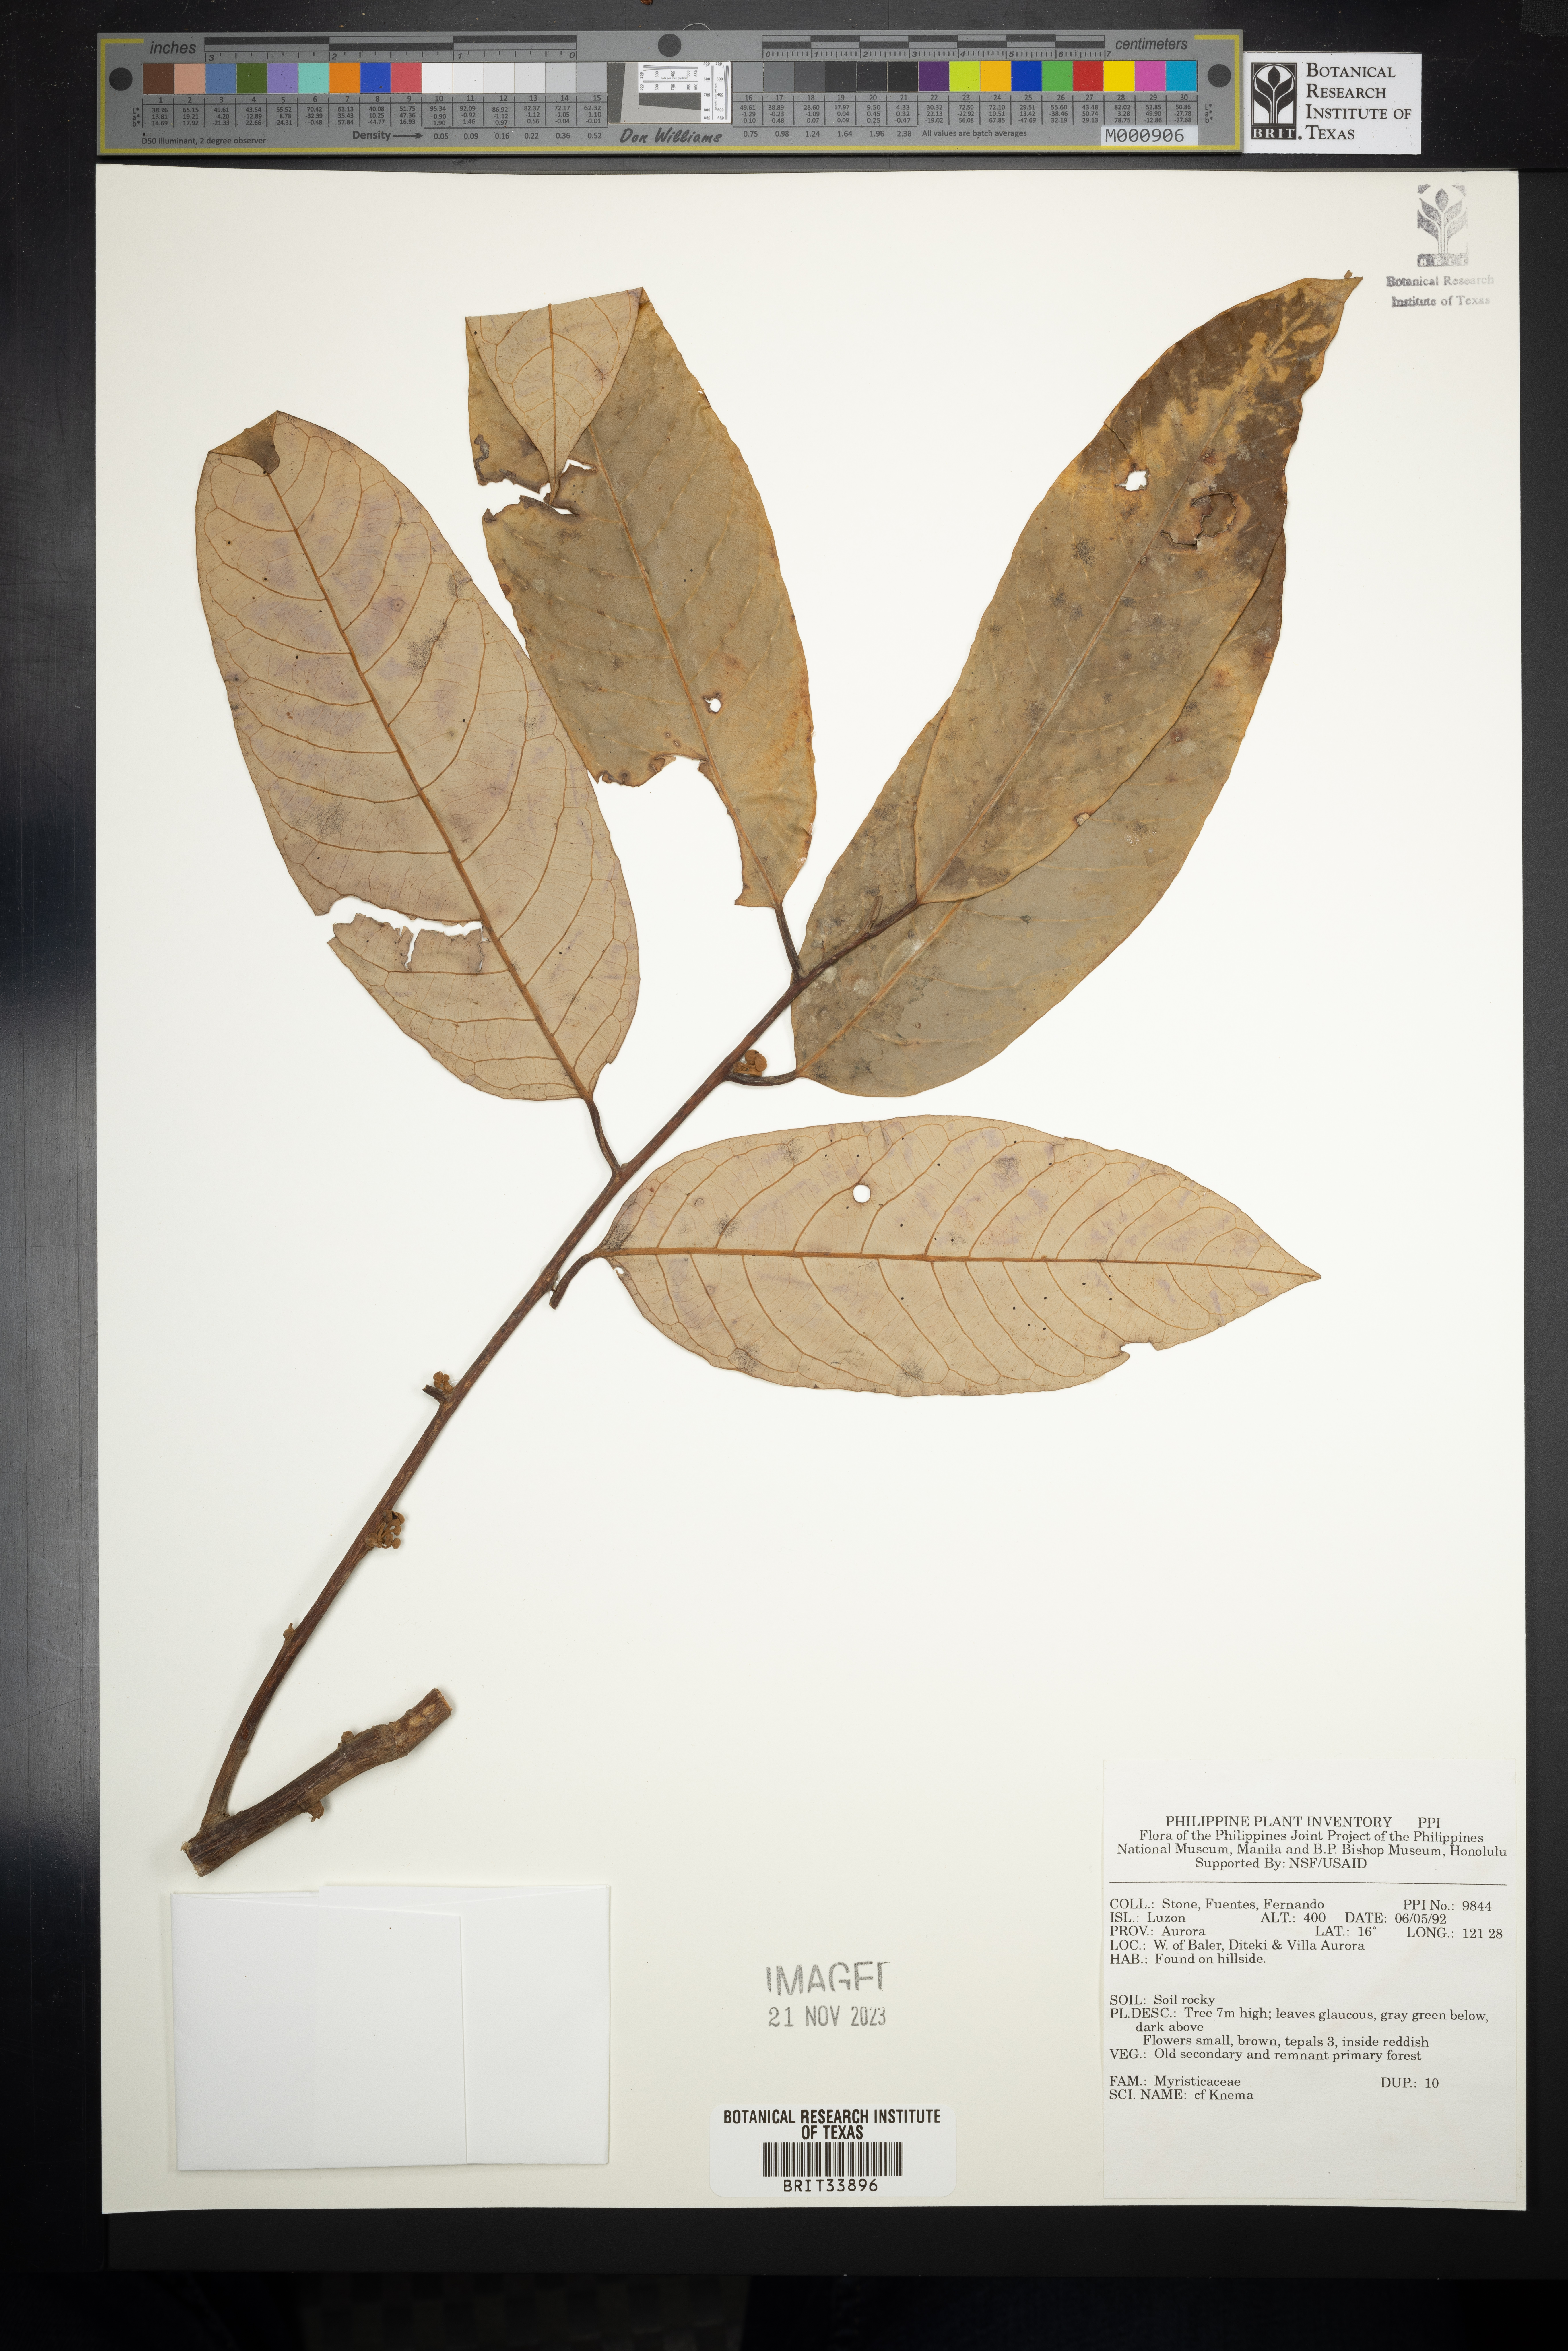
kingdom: Plantae
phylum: Tracheophyta
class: Magnoliopsida
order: Magnoliales
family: Myristicaceae
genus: Knema
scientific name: Knema
